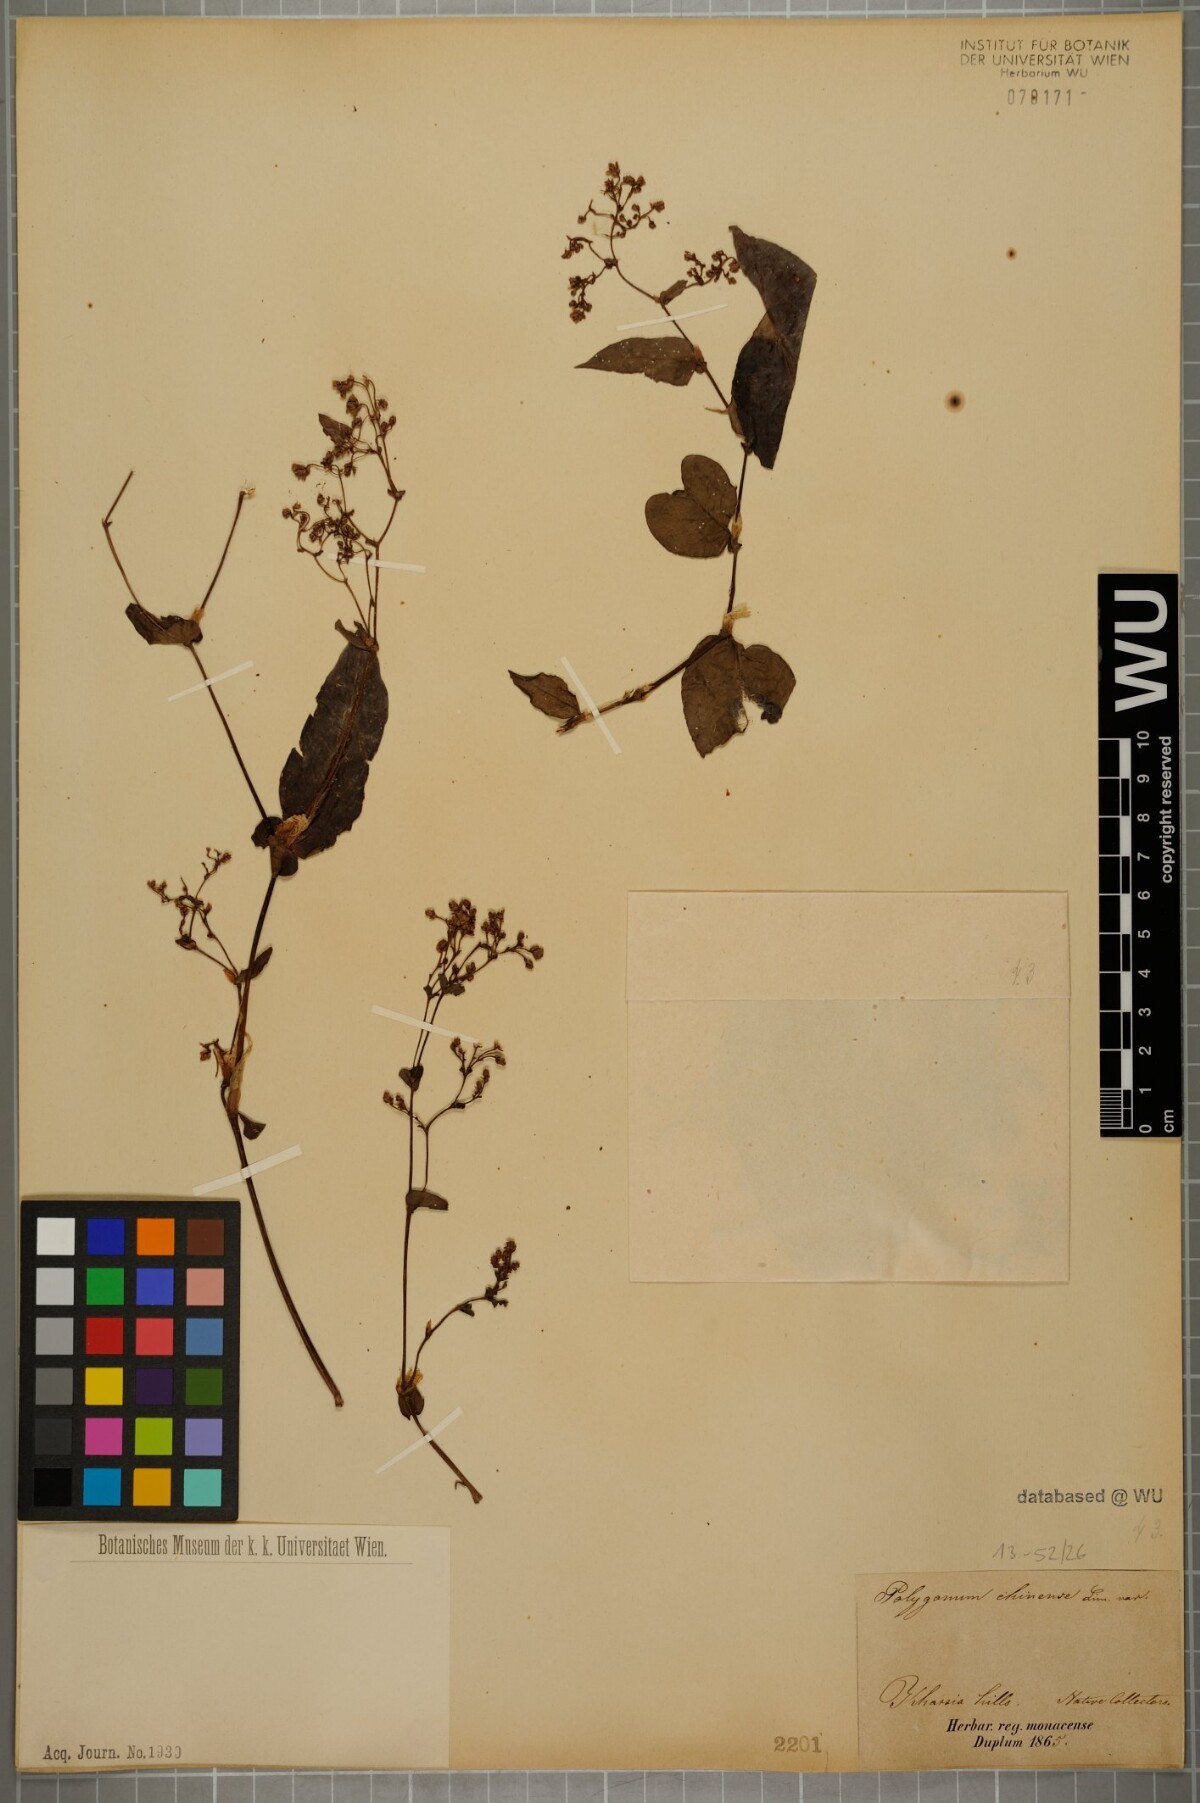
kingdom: Plantae
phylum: Tracheophyta
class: Magnoliopsida
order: Caryophyllales
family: Polygonaceae
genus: Persicaria
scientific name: Persicaria chinensis
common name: Chinese knotweed
